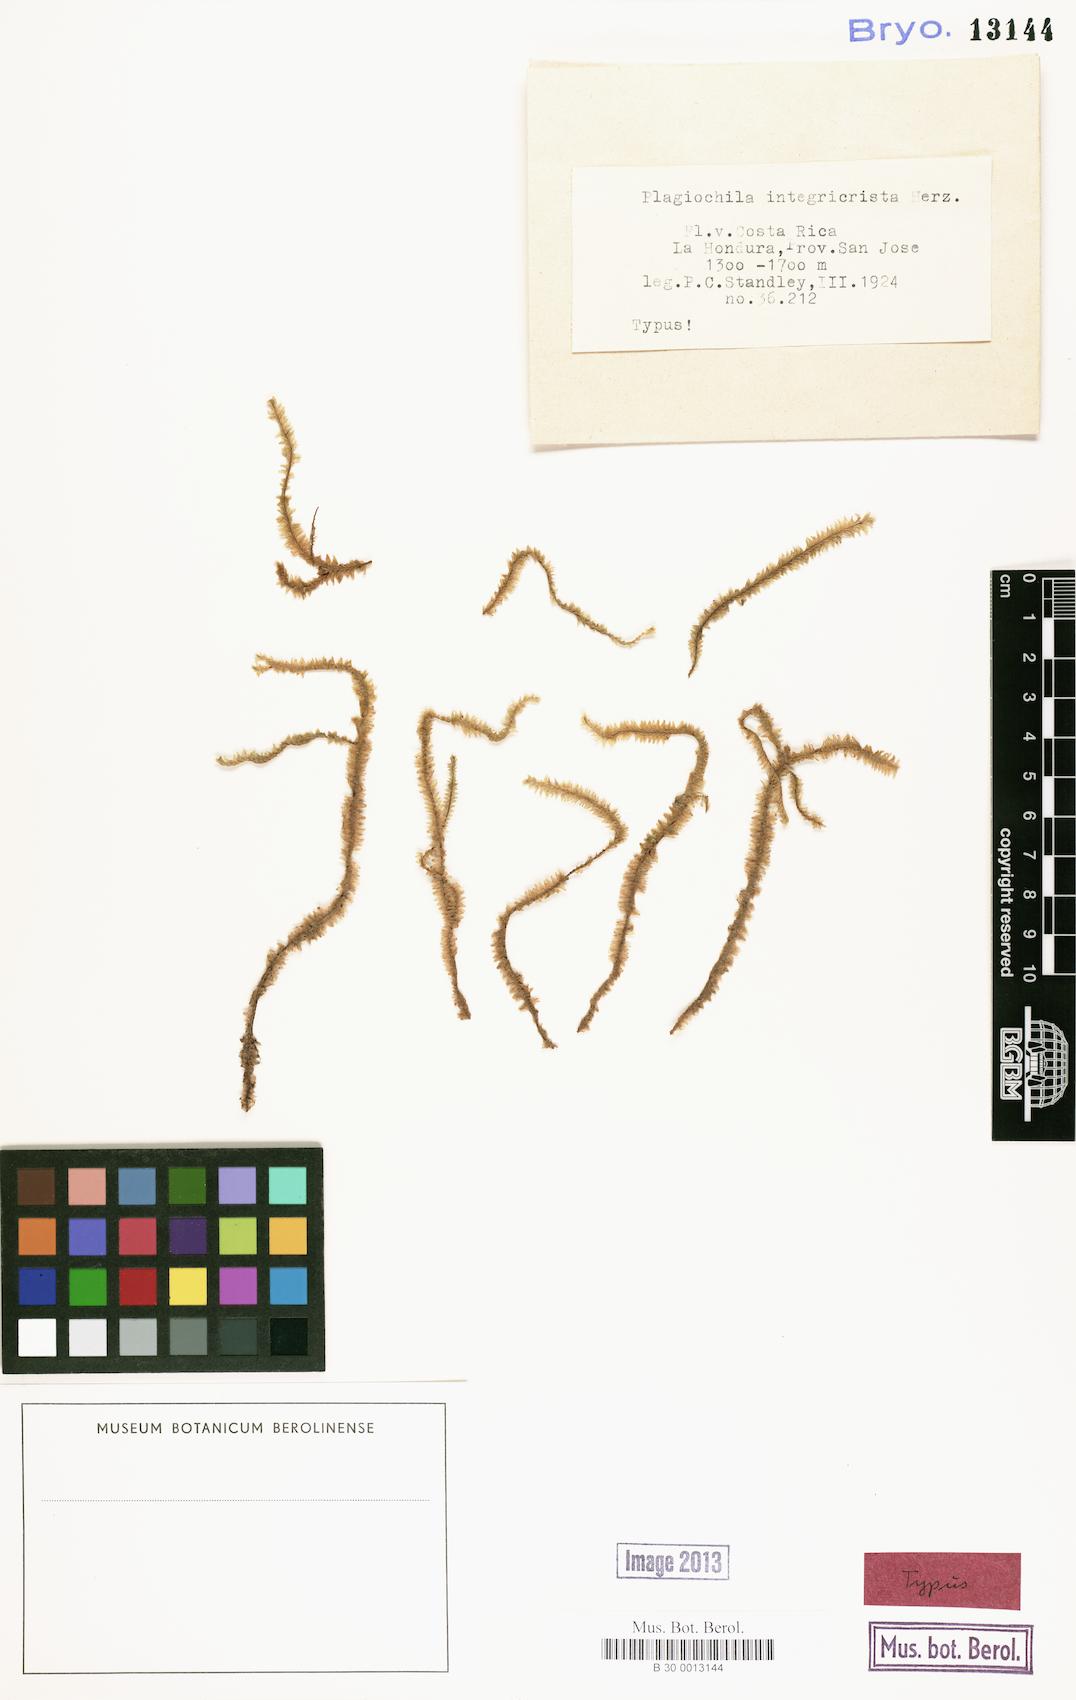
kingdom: Plantae
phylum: Marchantiophyta
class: Jungermanniopsida
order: Jungermanniales
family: Plagiochilaceae
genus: Plagiochila
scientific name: Plagiochila grandicrista
